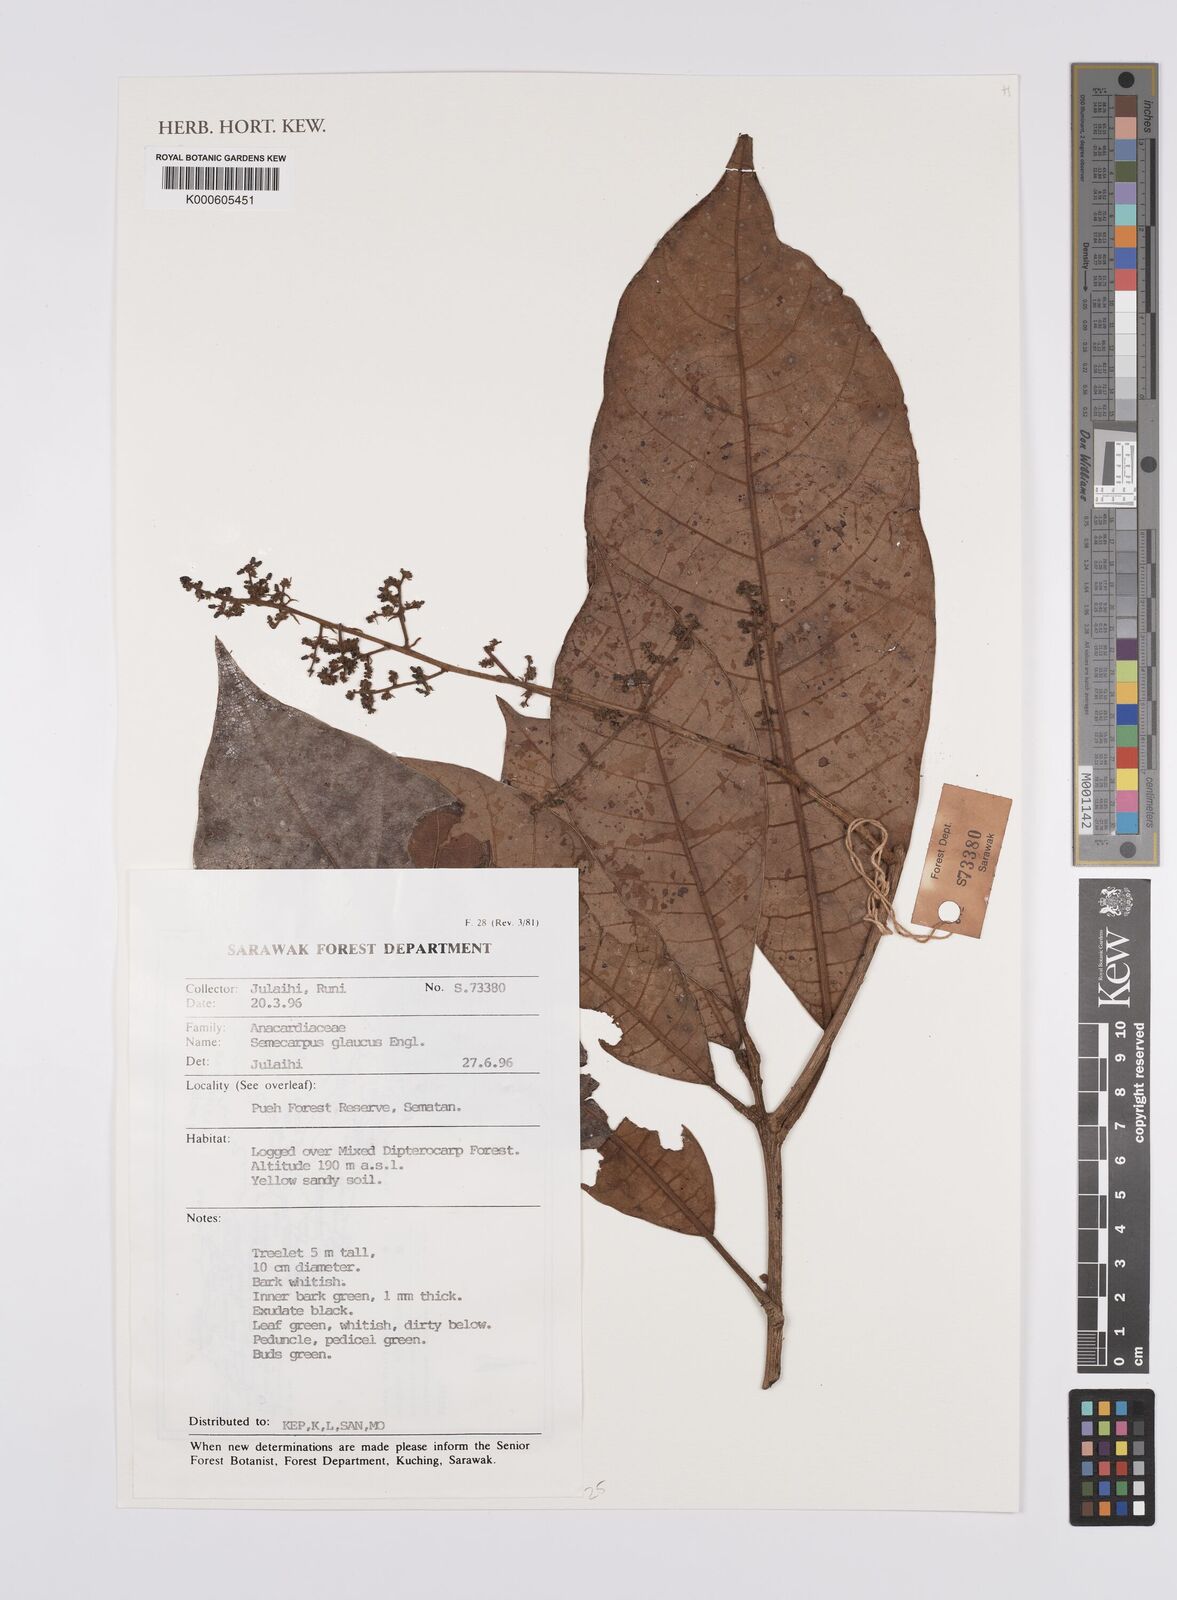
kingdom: Plantae
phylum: Tracheophyta
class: Magnoliopsida
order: Sapindales
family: Anacardiaceae
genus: Semecarpus
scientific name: Semecarpus glaucus
